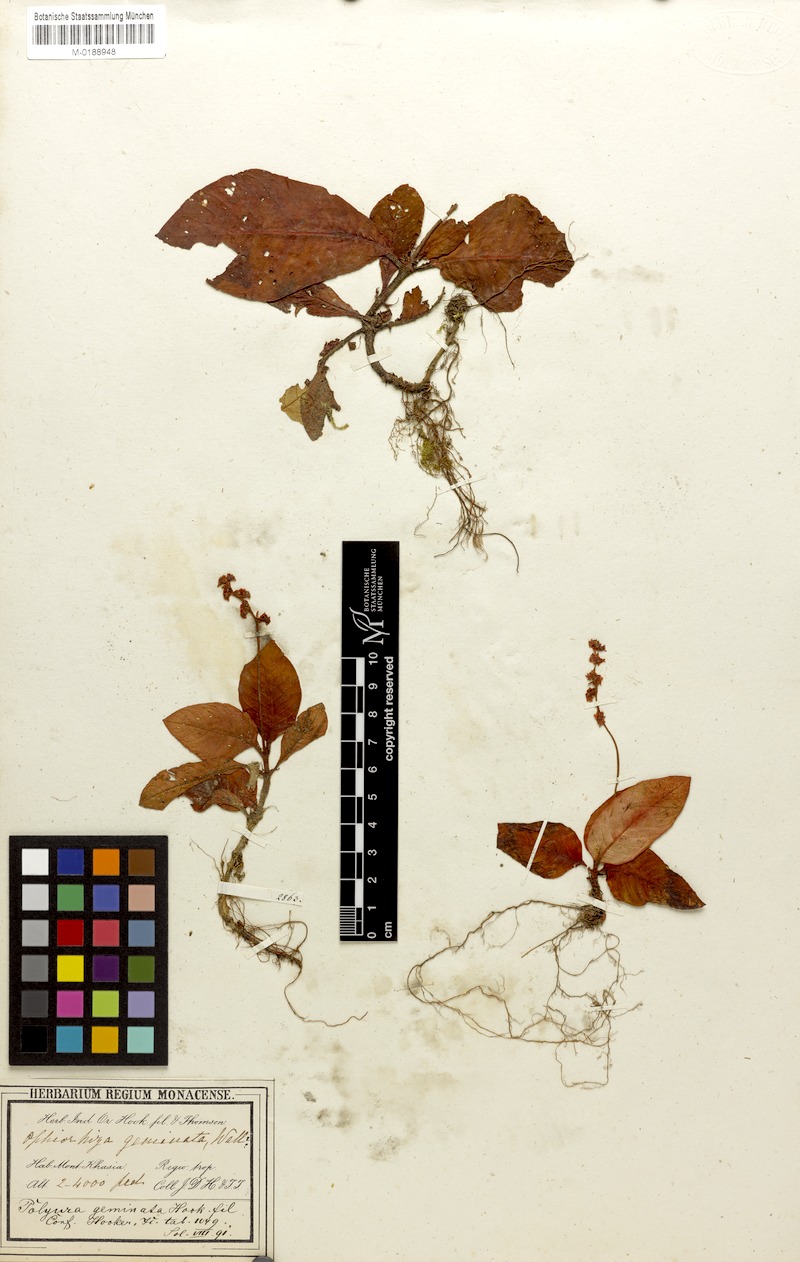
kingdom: Plantae
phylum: Tracheophyta
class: Magnoliopsida
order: Gentianales
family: Rubiaceae
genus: Polyura
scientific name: Polyura geminata
